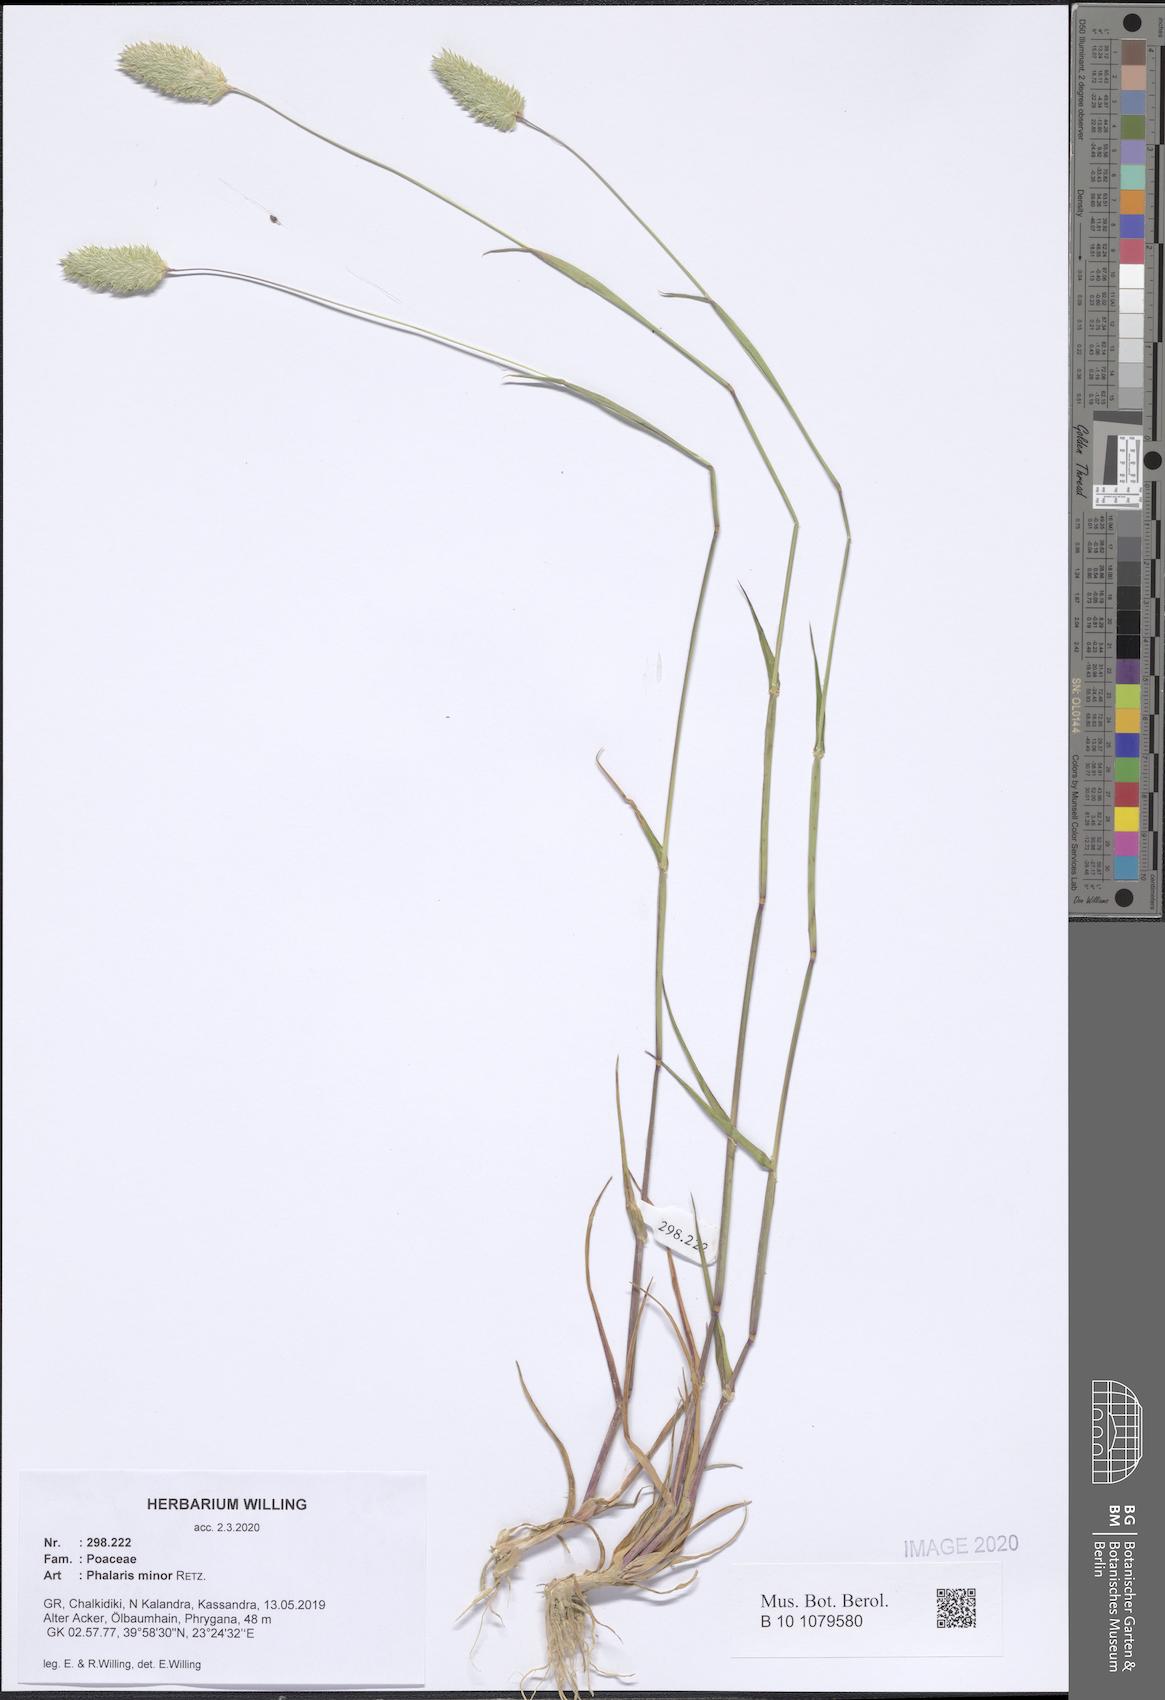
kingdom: Plantae
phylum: Tracheophyta
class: Liliopsida
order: Poales
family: Poaceae
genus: Phalaris
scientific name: Phalaris minor
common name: Littleseed canarygrass
